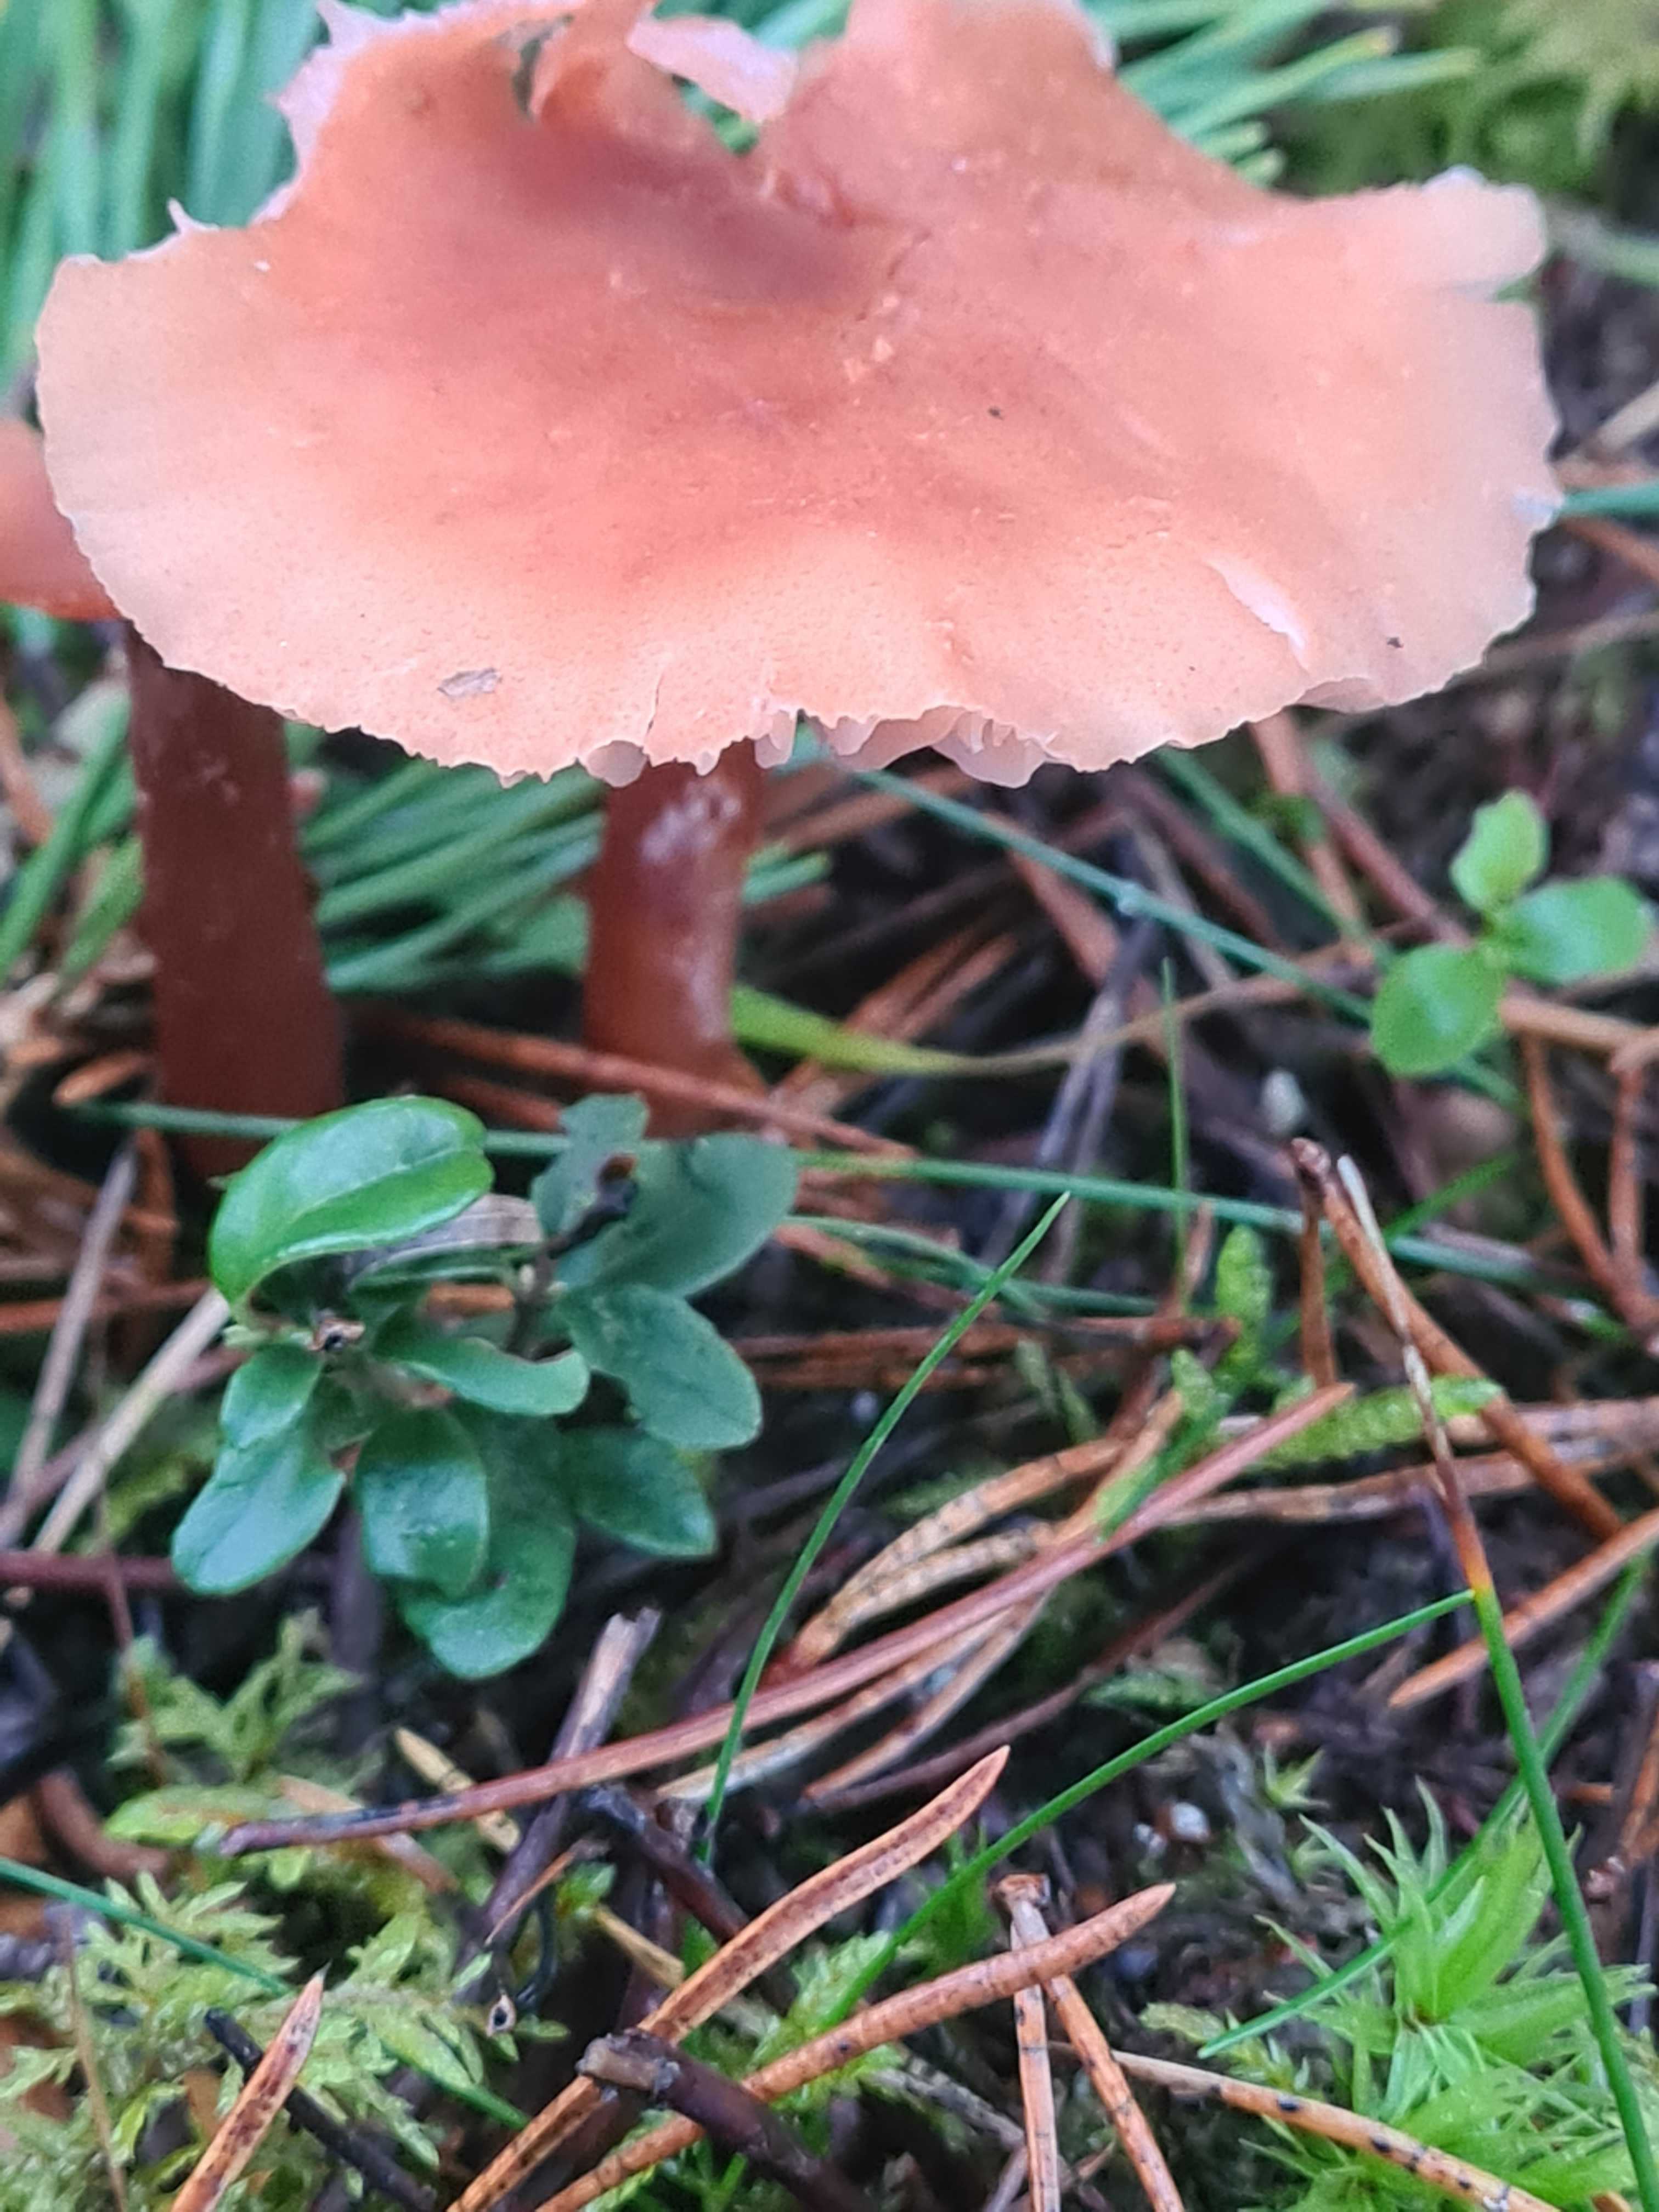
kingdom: Fungi
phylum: Basidiomycota
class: Agaricomycetes
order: Agaricales
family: Hydnangiaceae
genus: Laccaria
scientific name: Laccaria
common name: ametysthat
